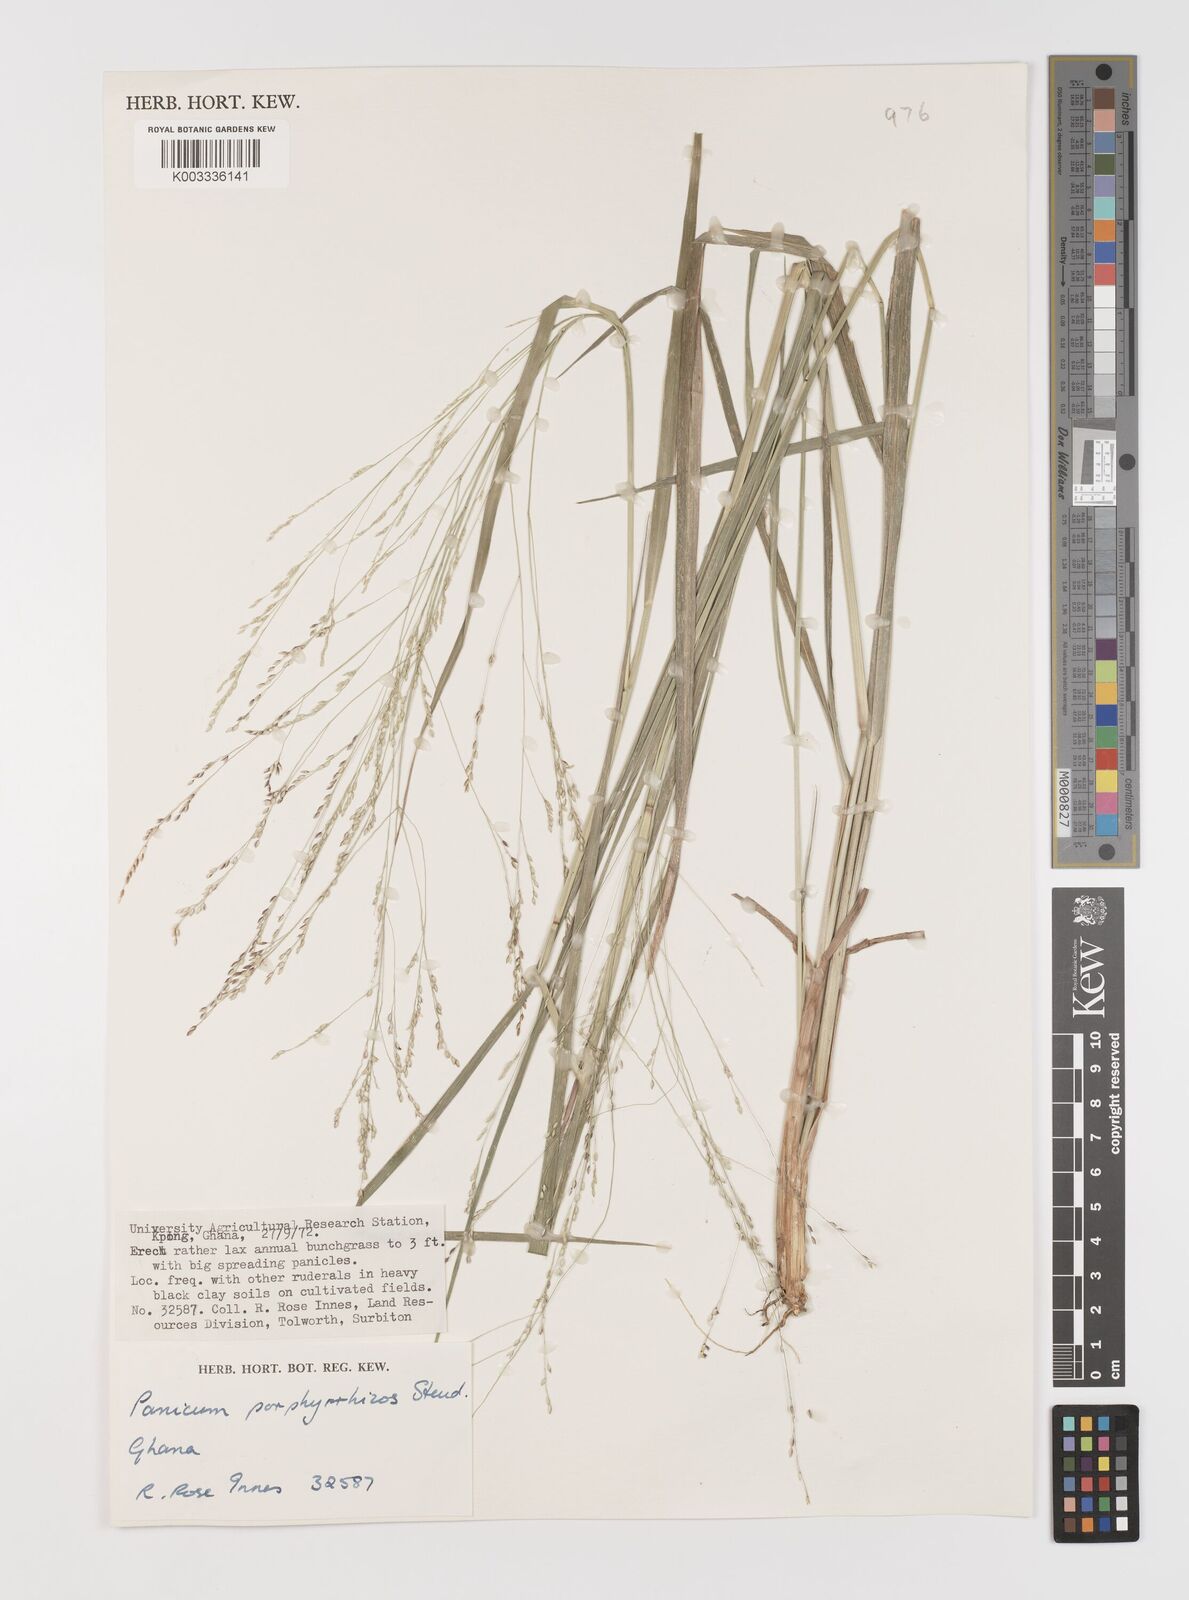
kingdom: Plantae
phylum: Tracheophyta
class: Liliopsida
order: Poales
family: Poaceae
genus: Panicum
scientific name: Panicum porphyrrhizos
